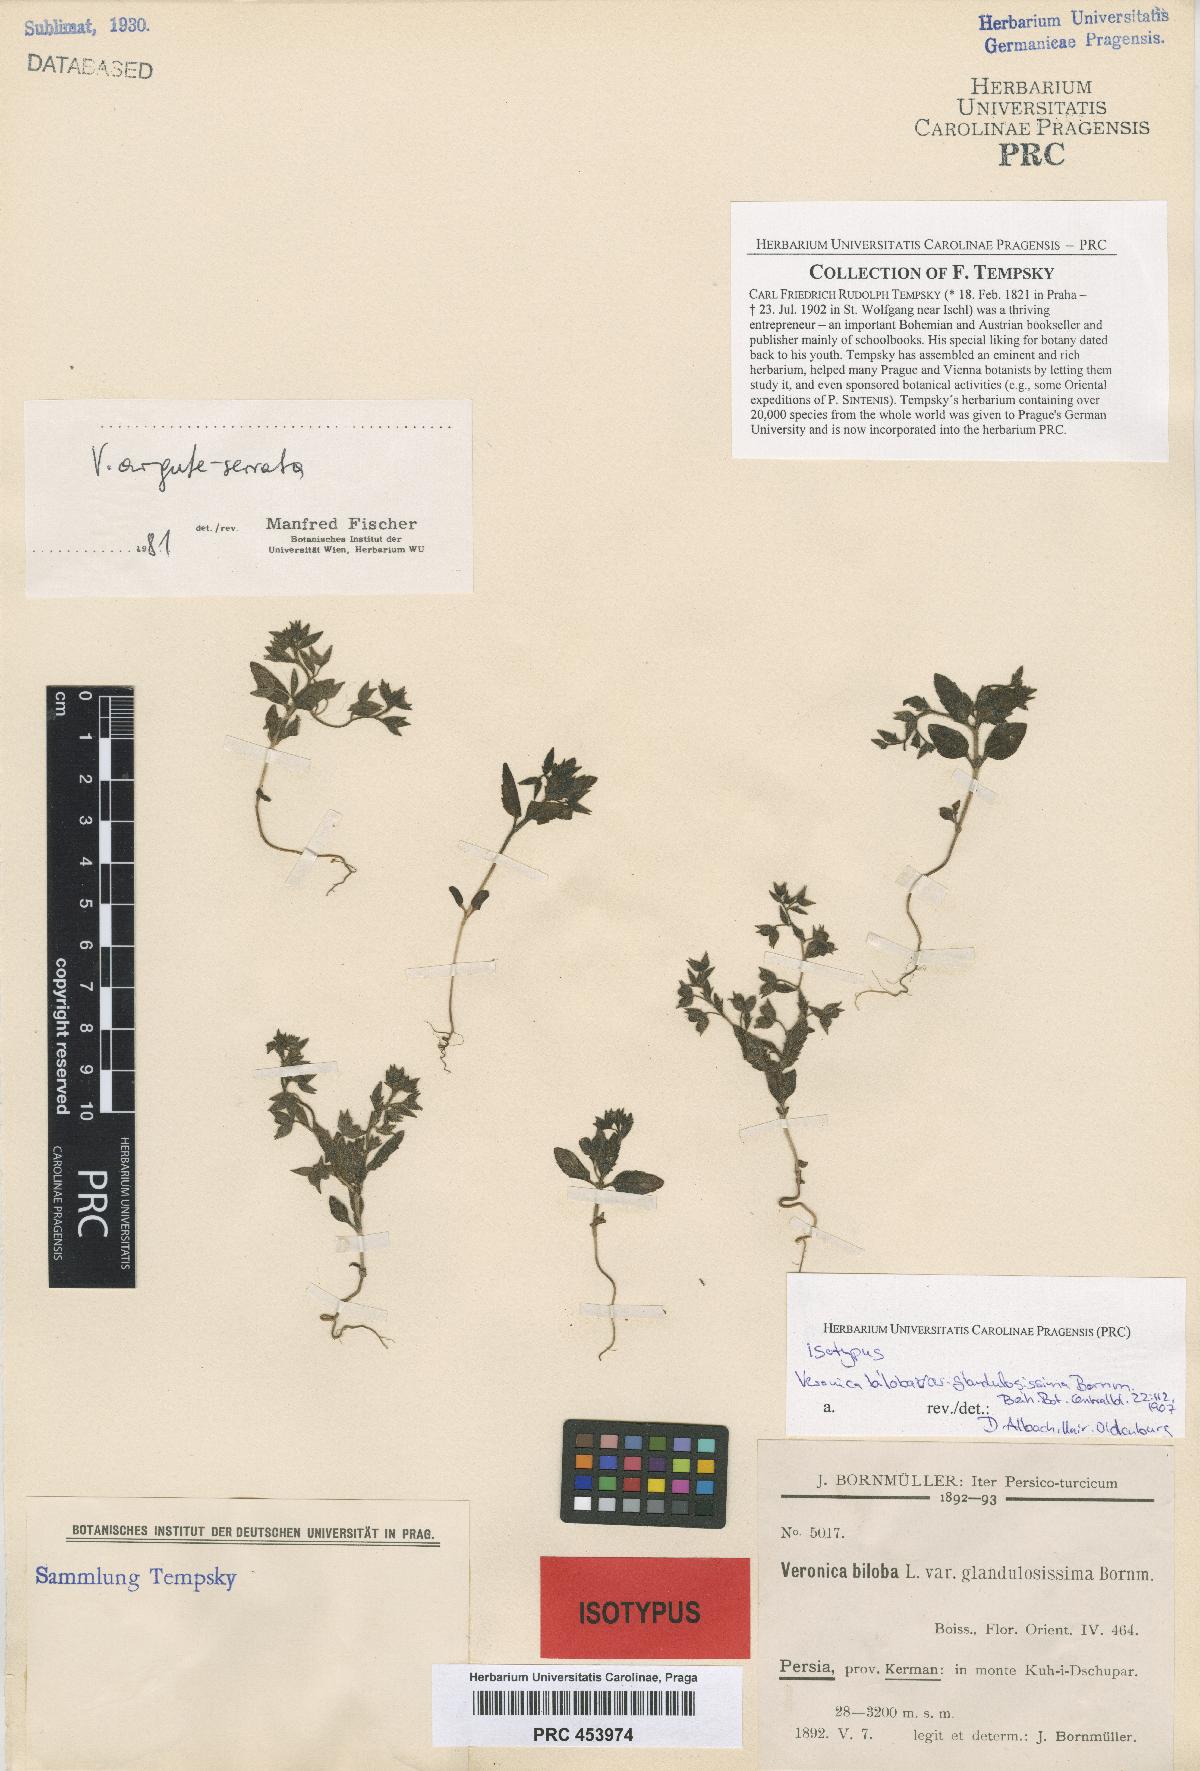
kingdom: Plantae
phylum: Tracheophyta
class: Magnoliopsida
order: Lamiales
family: Plantaginaceae
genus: Veronica
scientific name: Veronica argute-serrata
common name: Sawtooth speedwell
